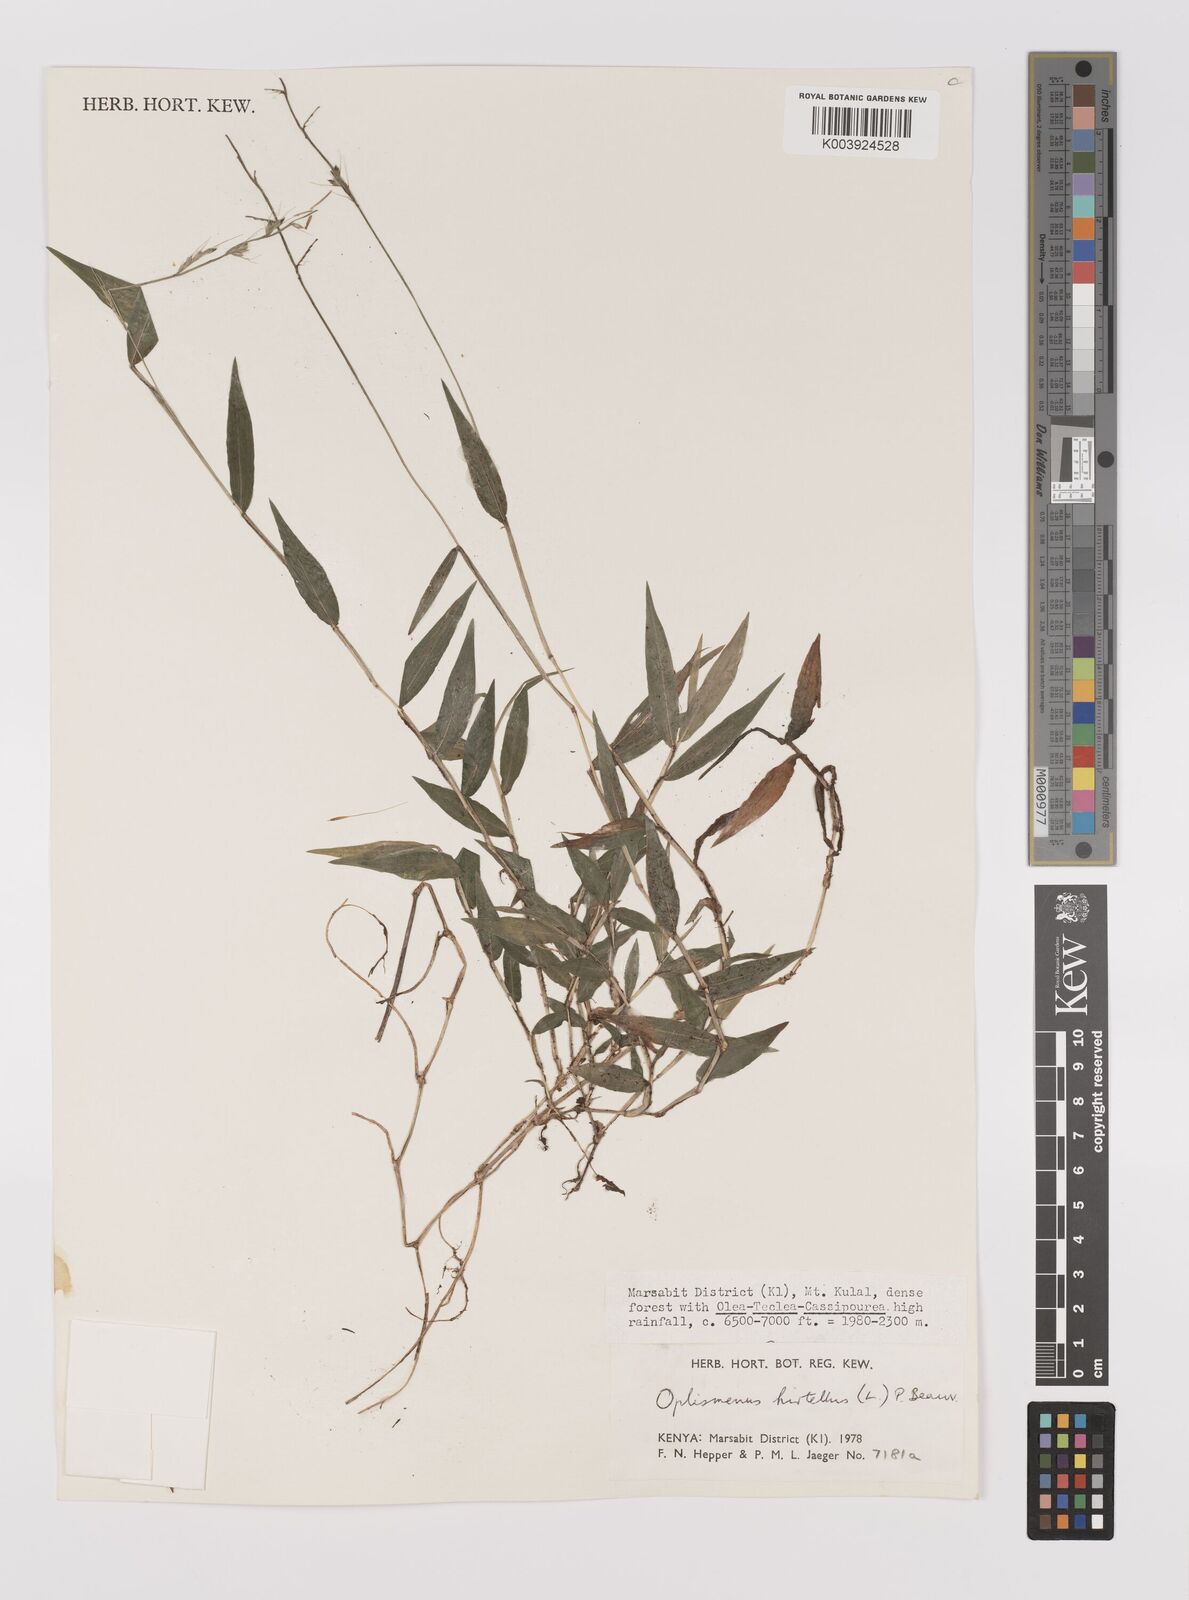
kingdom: Plantae
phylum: Tracheophyta
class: Liliopsida
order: Poales
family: Poaceae
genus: Oplismenus
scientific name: Oplismenus hirtellus
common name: Basketgrass
